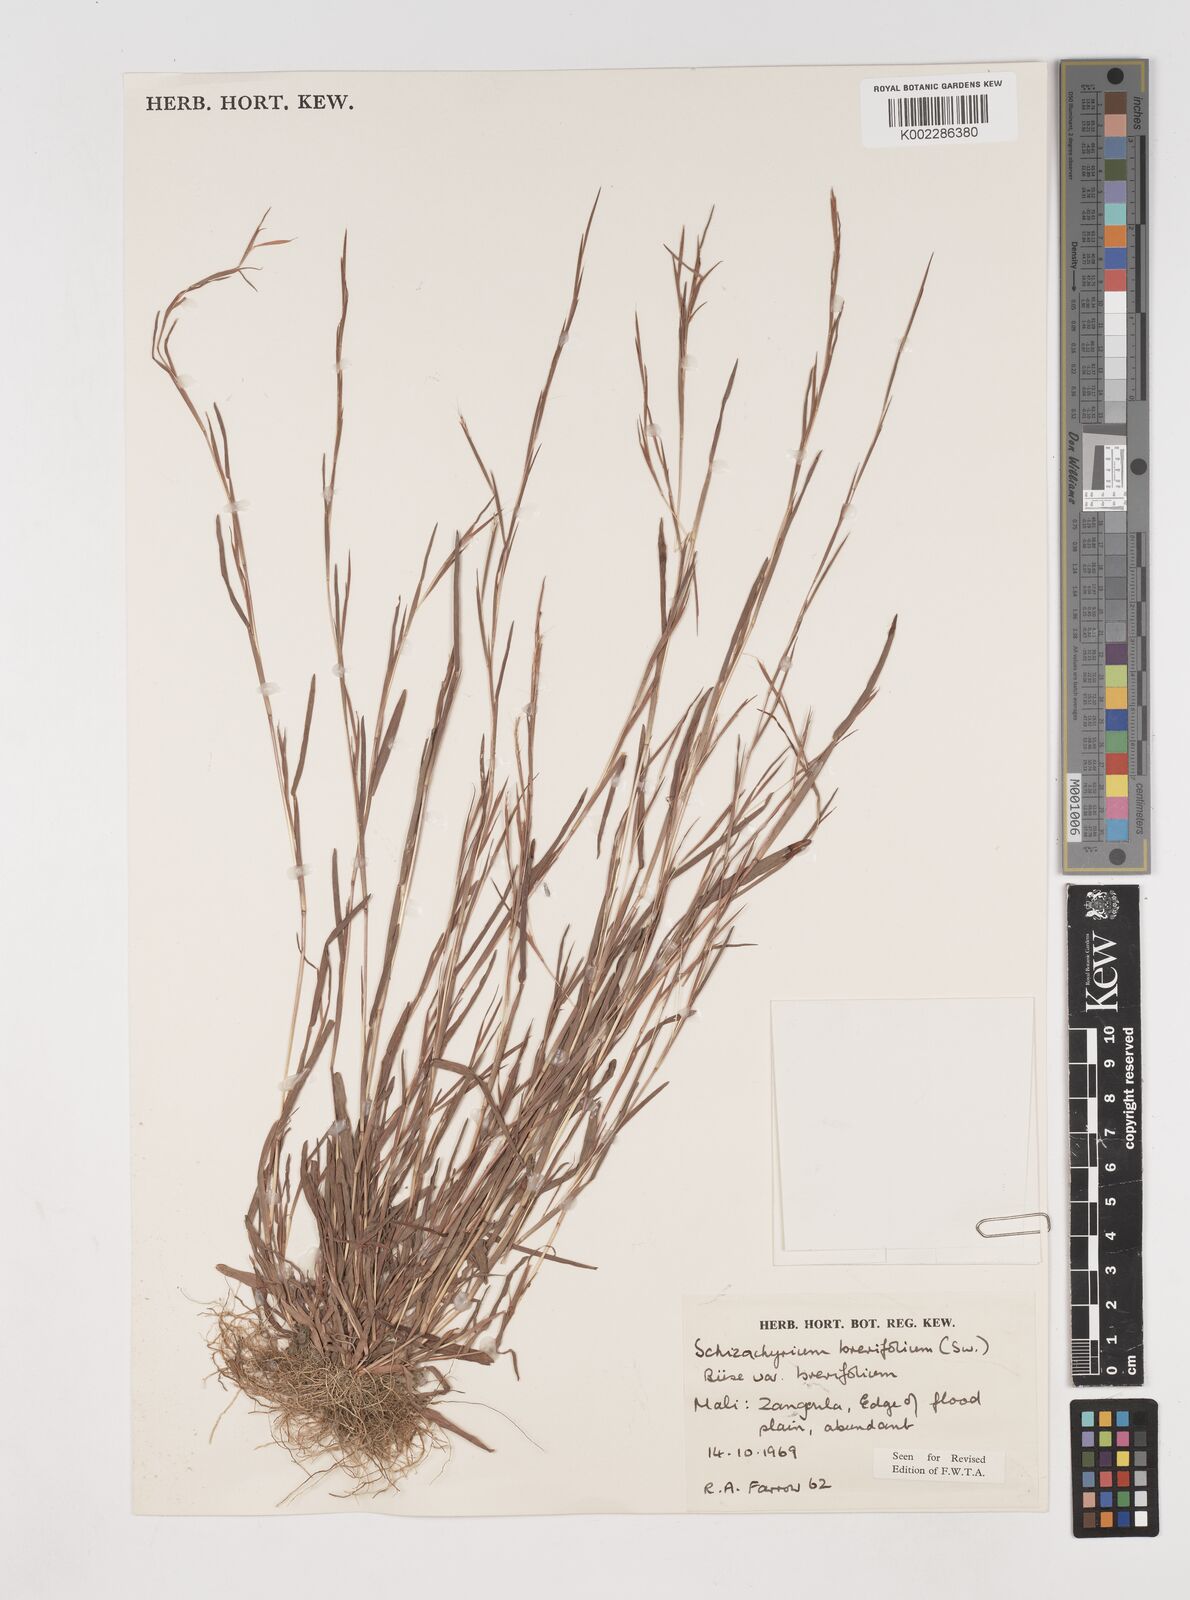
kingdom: Plantae
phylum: Tracheophyta
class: Liliopsida
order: Poales
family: Poaceae
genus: Schizachyrium
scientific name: Schizachyrium brevifolium
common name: Serillo dulce
